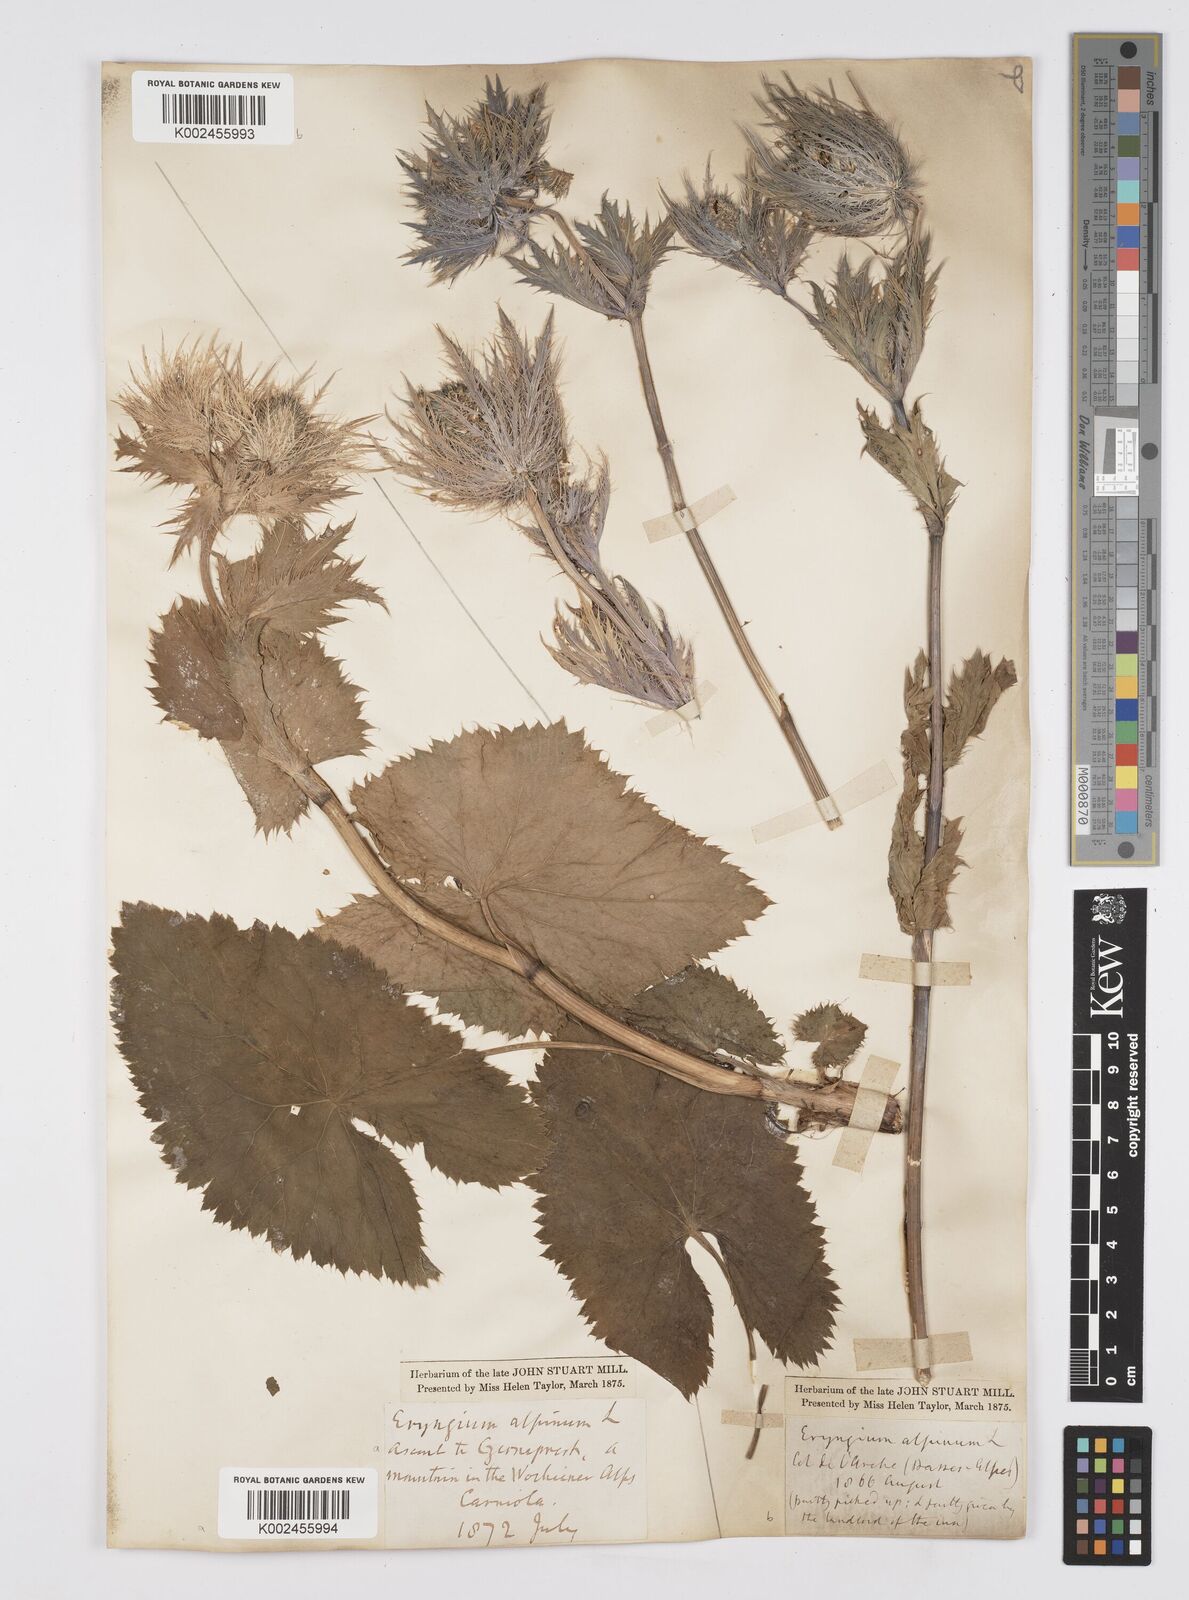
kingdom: Plantae
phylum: Tracheophyta
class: Magnoliopsida
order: Apiales
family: Apiaceae
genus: Eryngium
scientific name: Eryngium alpinum
